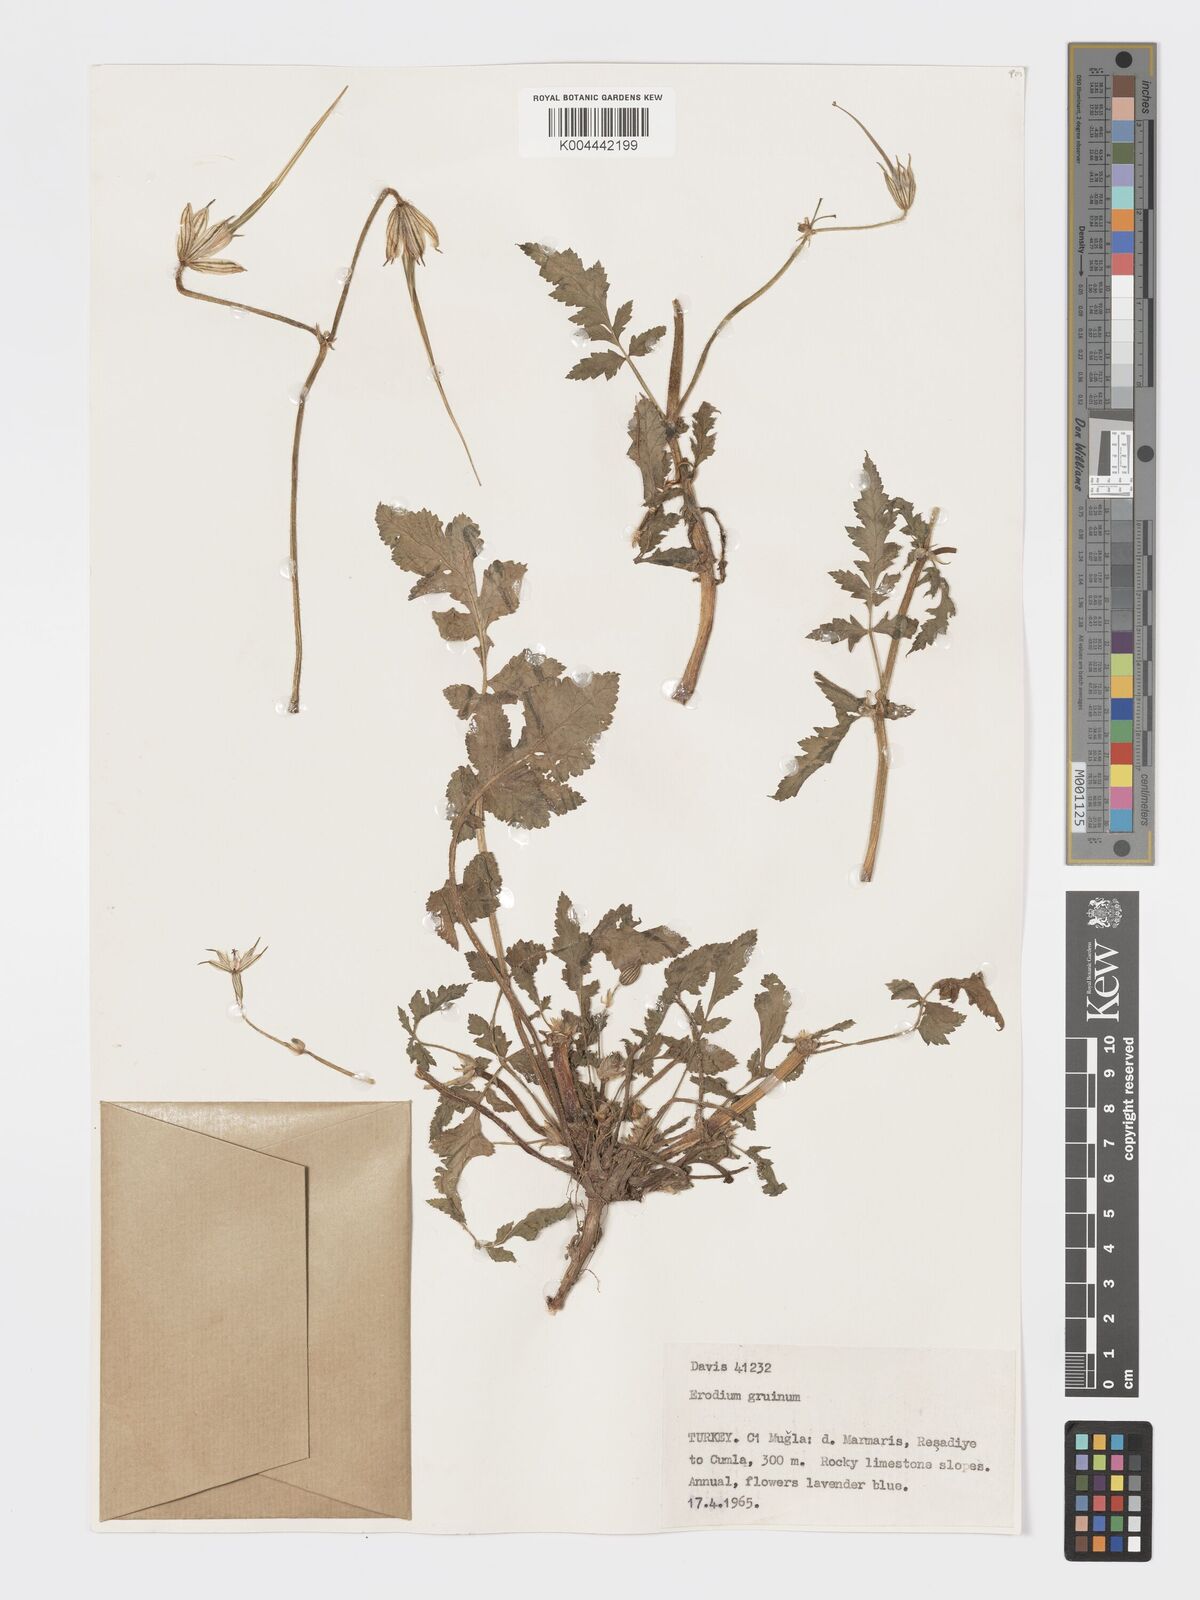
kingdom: Plantae
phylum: Tracheophyta
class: Magnoliopsida
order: Geraniales
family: Geraniaceae
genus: Erodium
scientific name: Erodium gruinum
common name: Iranian stork's bill
